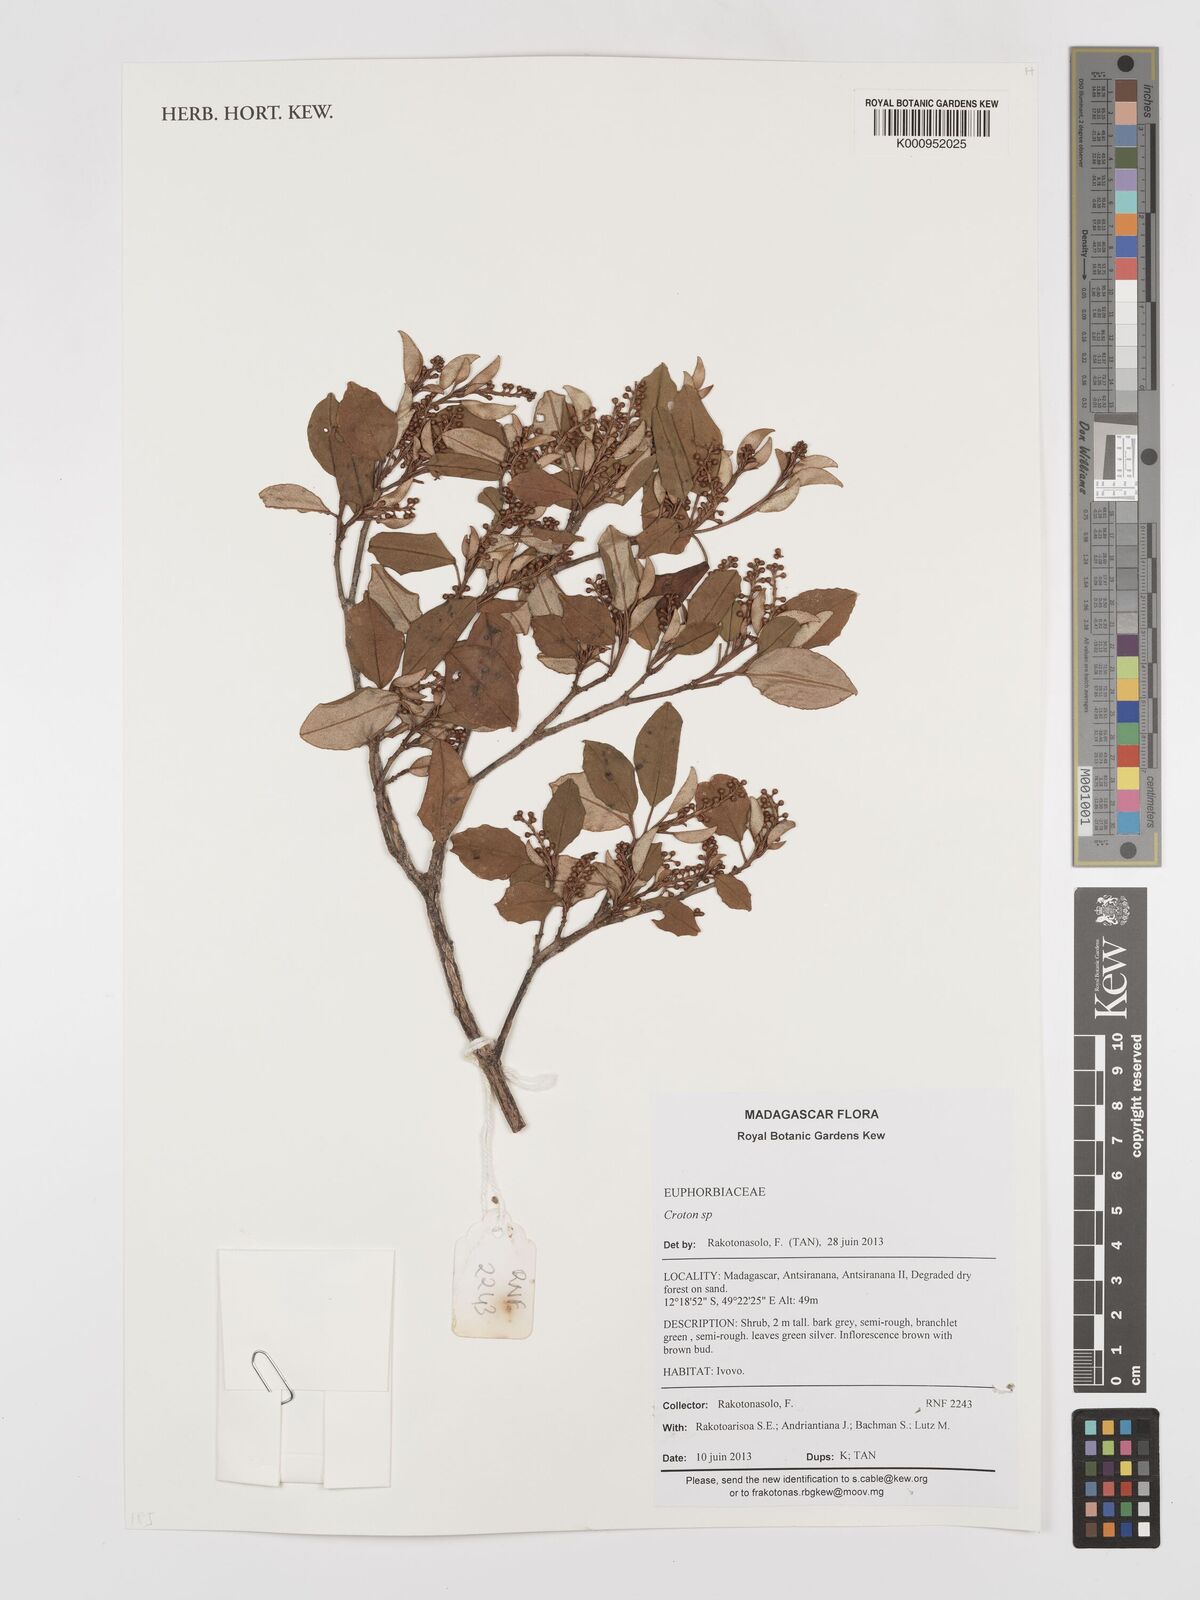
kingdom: Plantae
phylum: Tracheophyta
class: Magnoliopsida
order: Malpighiales
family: Euphorbiaceae
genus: Croton
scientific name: Croton
